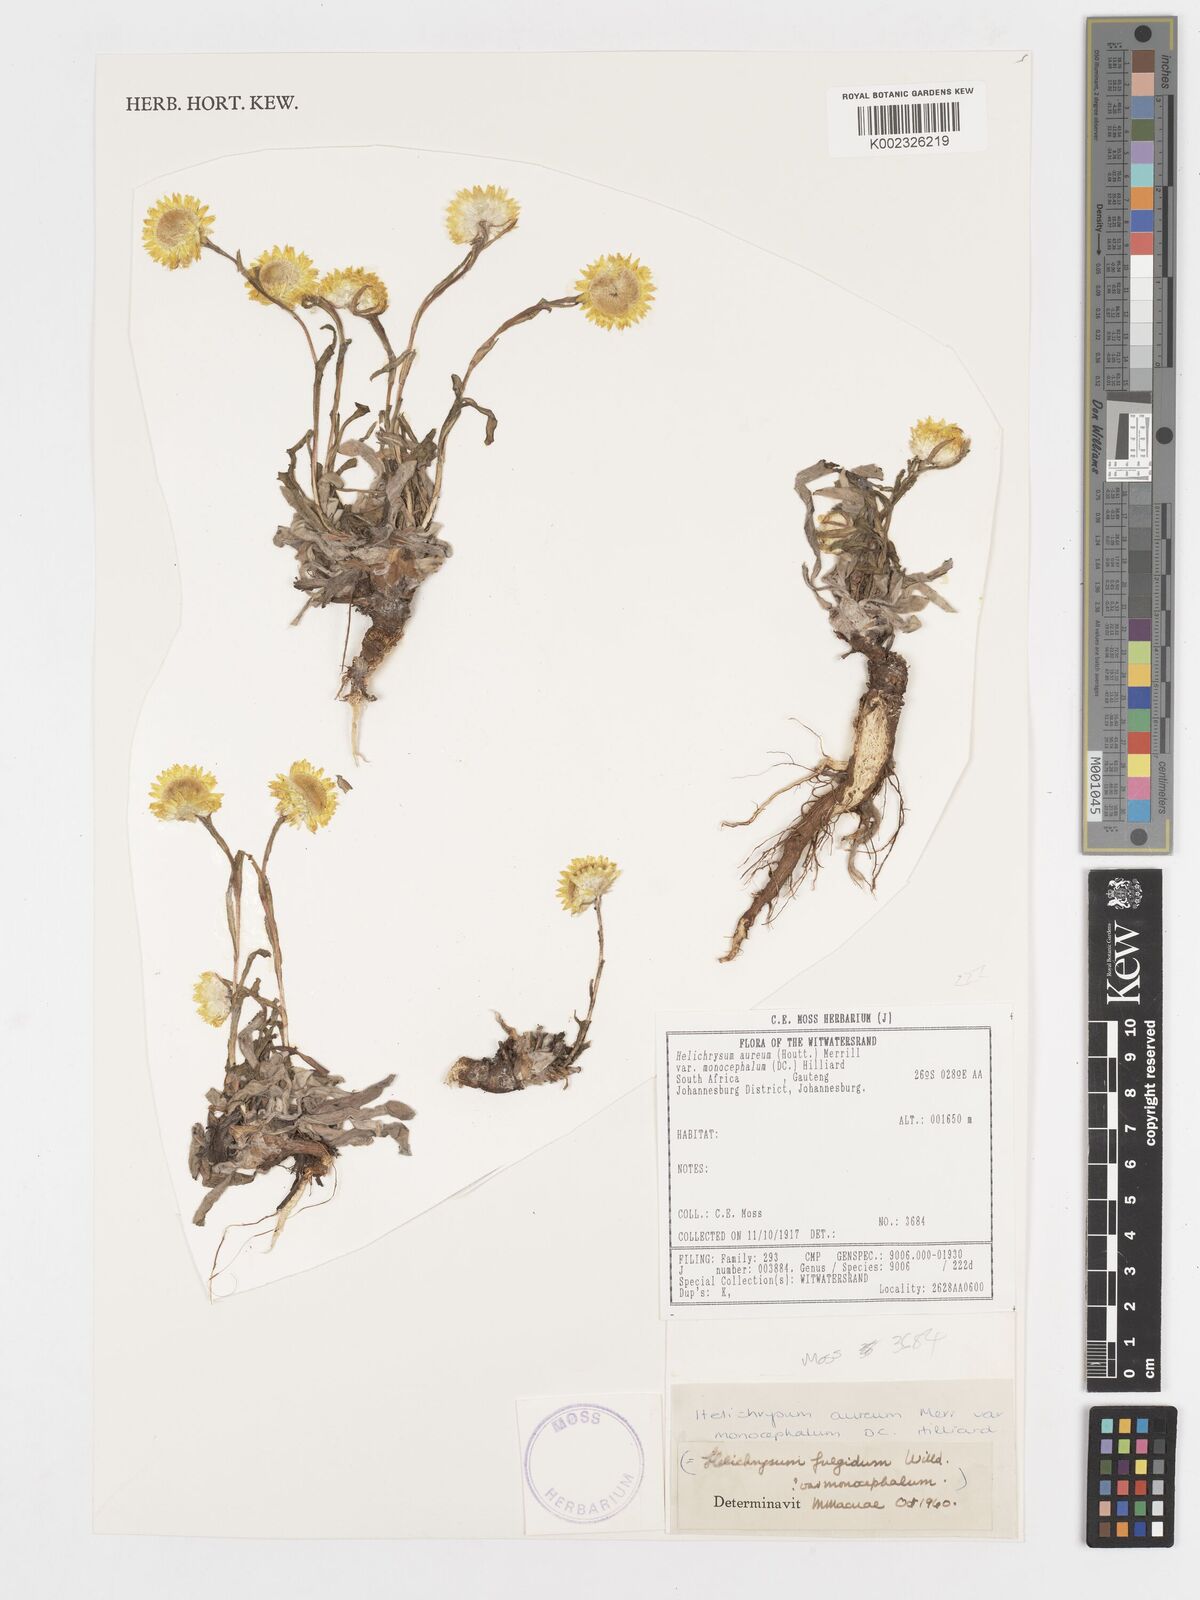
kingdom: Plantae
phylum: Tracheophyta
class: Magnoliopsida
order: Asterales
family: Asteraceae
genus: Helichrysum
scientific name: Helichrysum aureum
